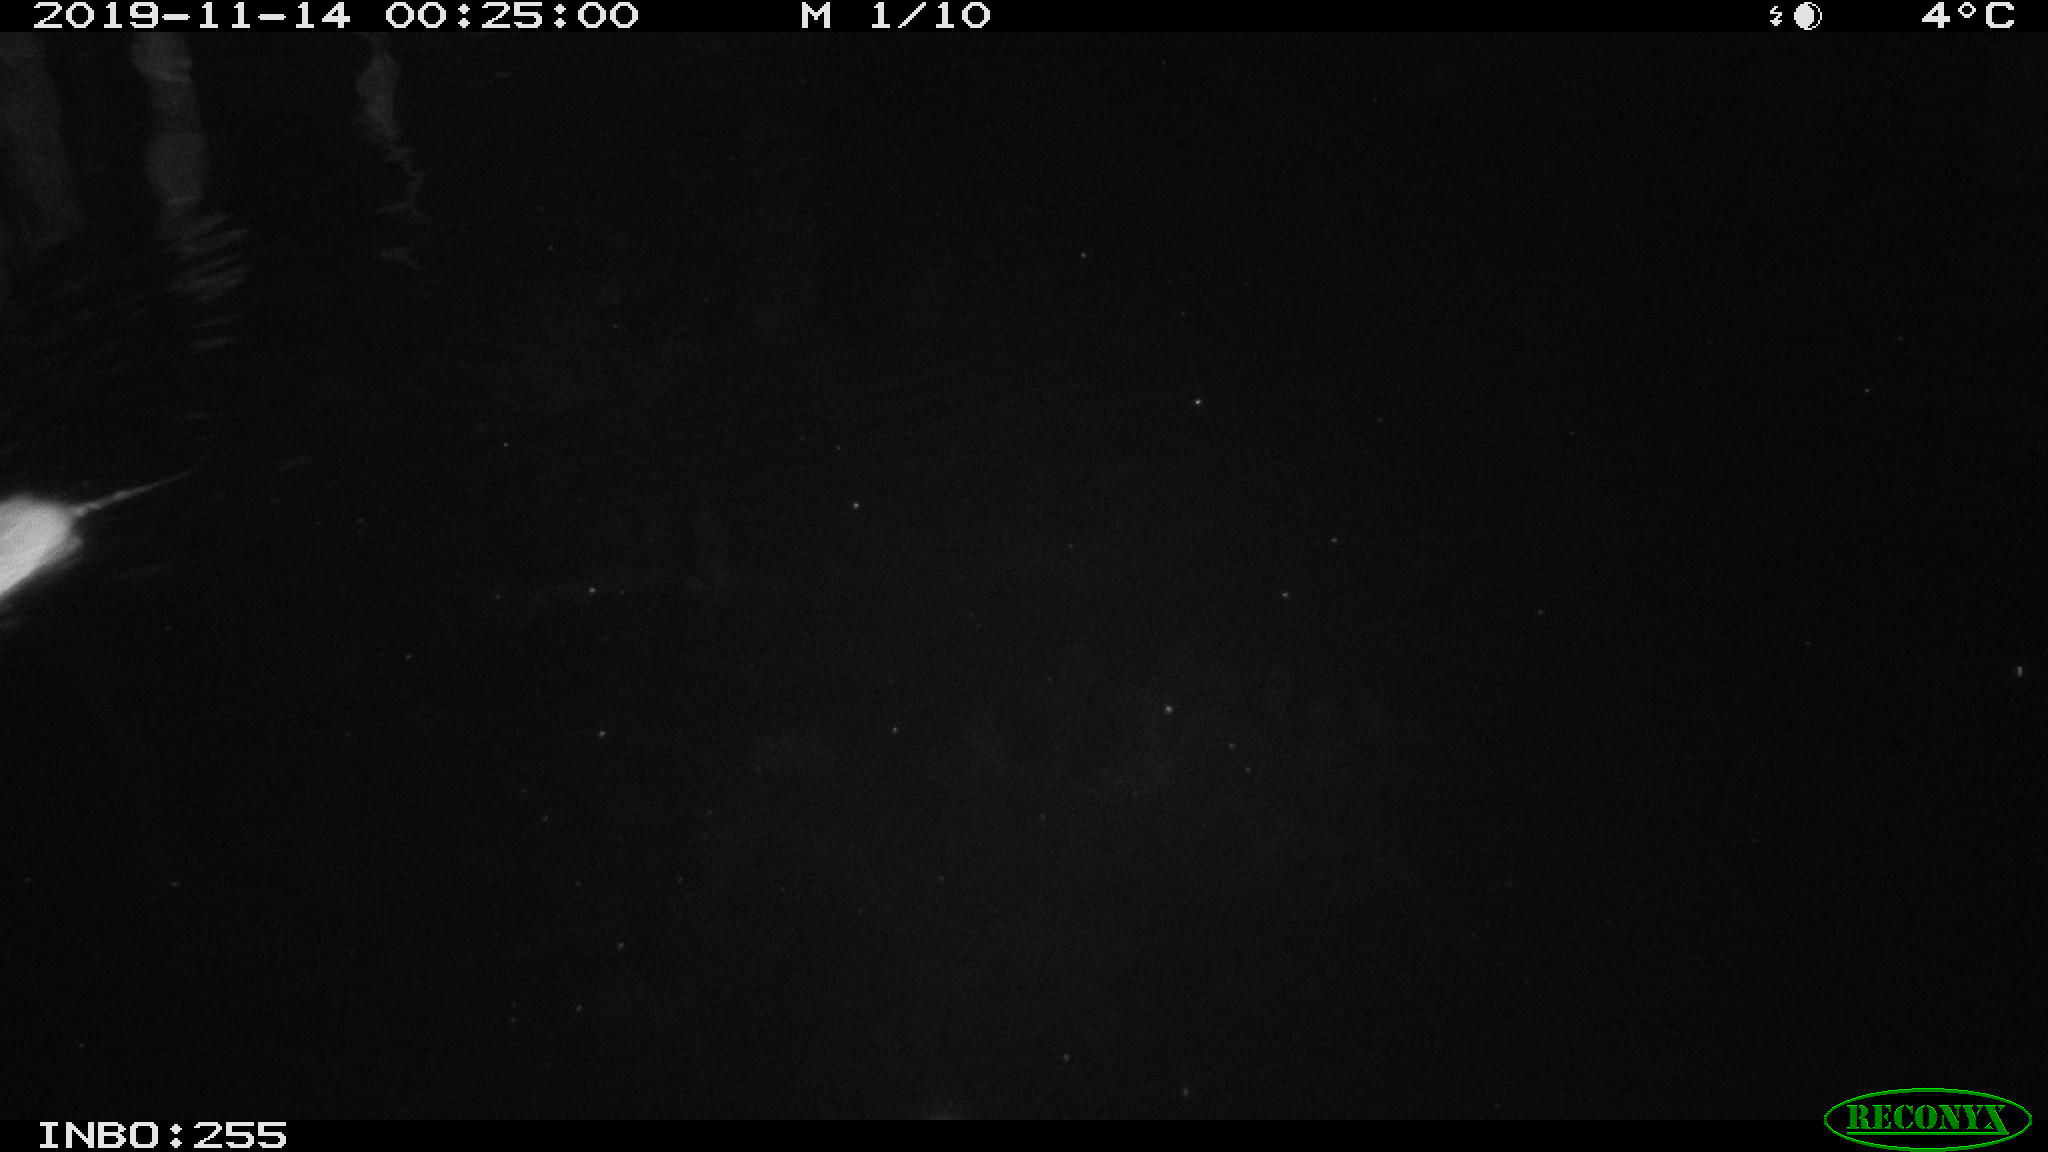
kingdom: Animalia
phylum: Chordata
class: Mammalia
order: Rodentia
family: Muridae
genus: Rattus
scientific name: Rattus norvegicus
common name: Brown rat
